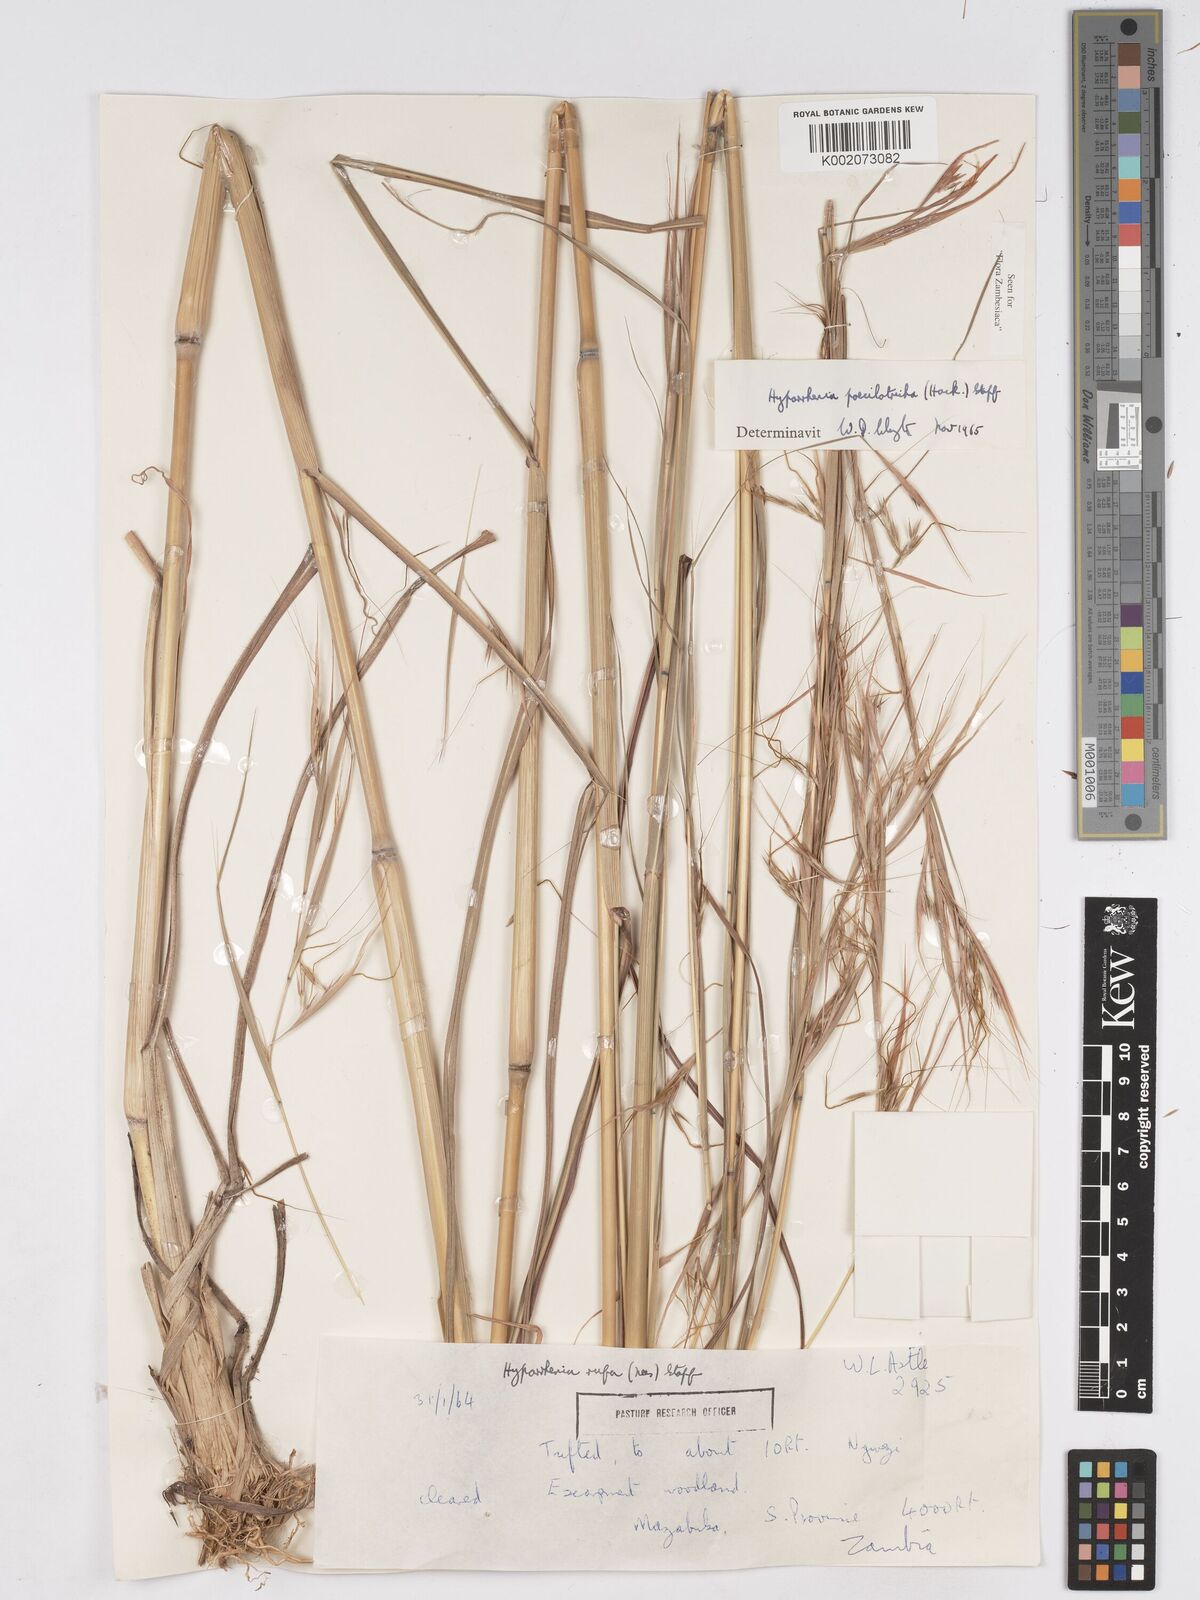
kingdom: Plantae
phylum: Tracheophyta
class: Liliopsida
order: Poales
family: Poaceae
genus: Hyparrhenia
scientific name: Hyparrhenia poecilotricha
